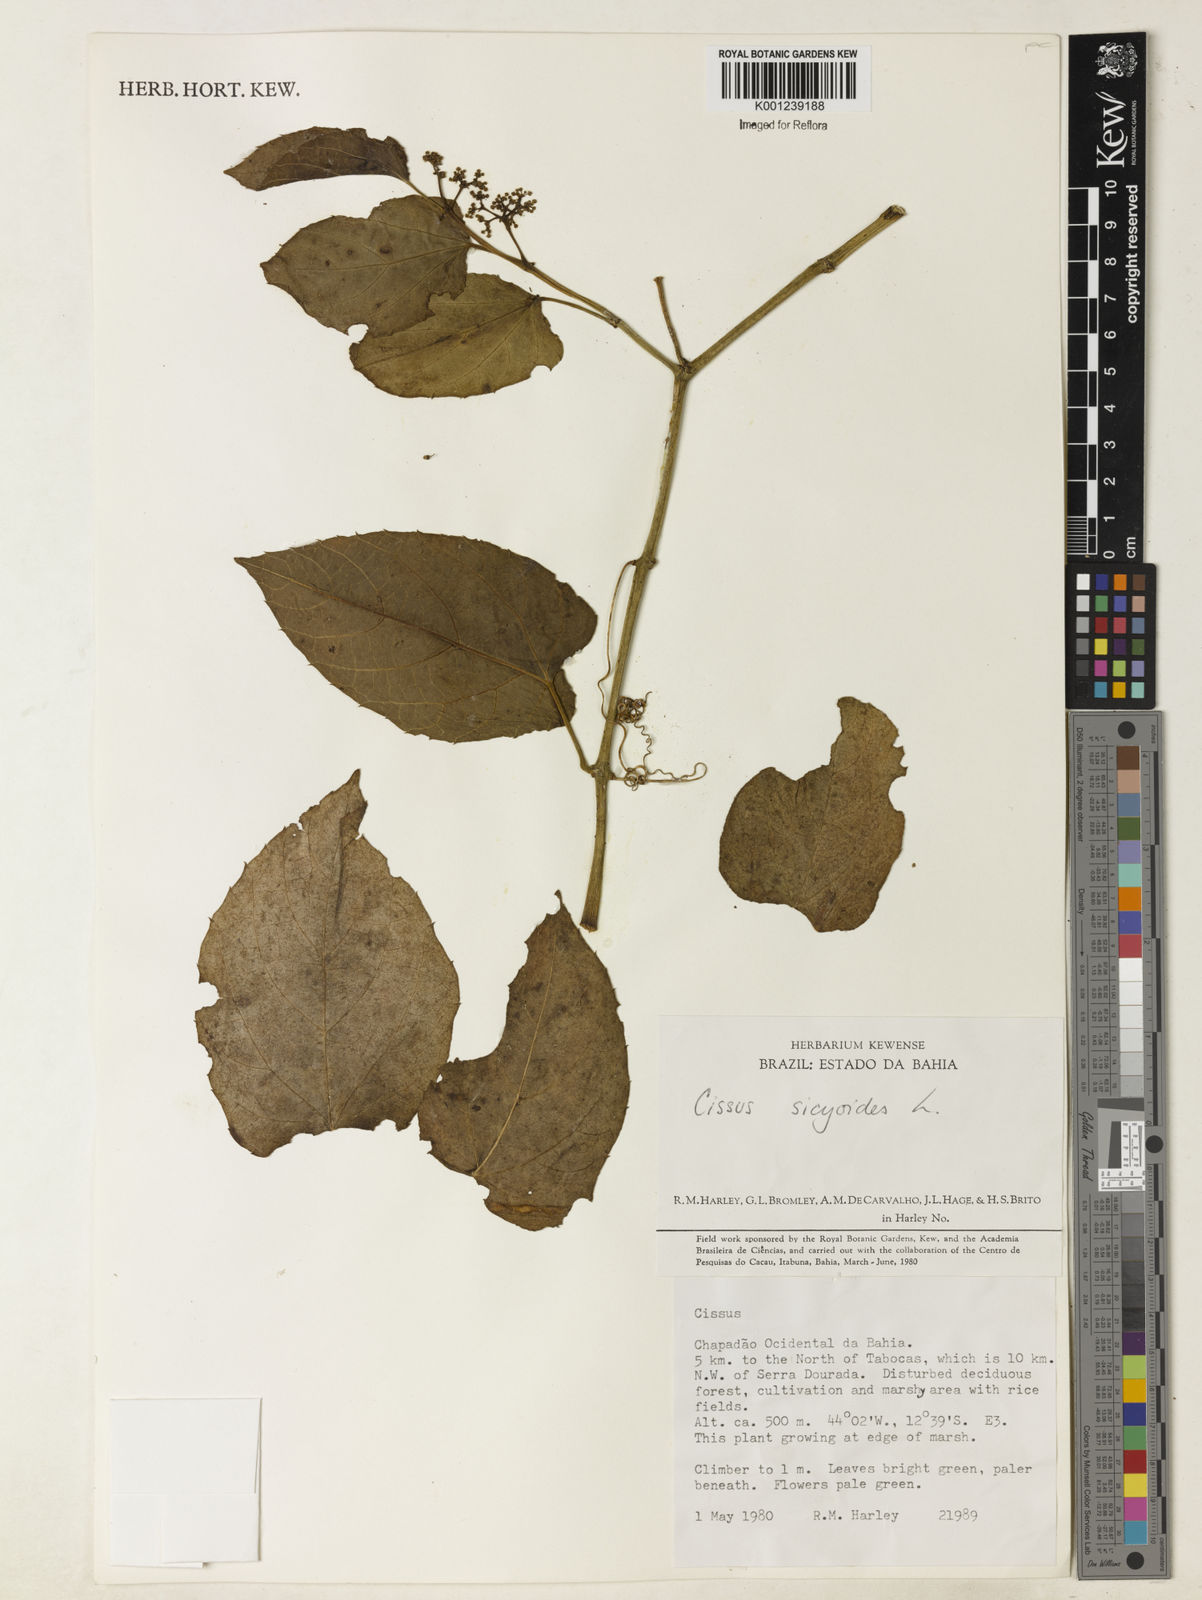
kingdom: Plantae
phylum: Tracheophyta
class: Magnoliopsida
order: Vitales
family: Vitaceae
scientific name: Vitaceae
